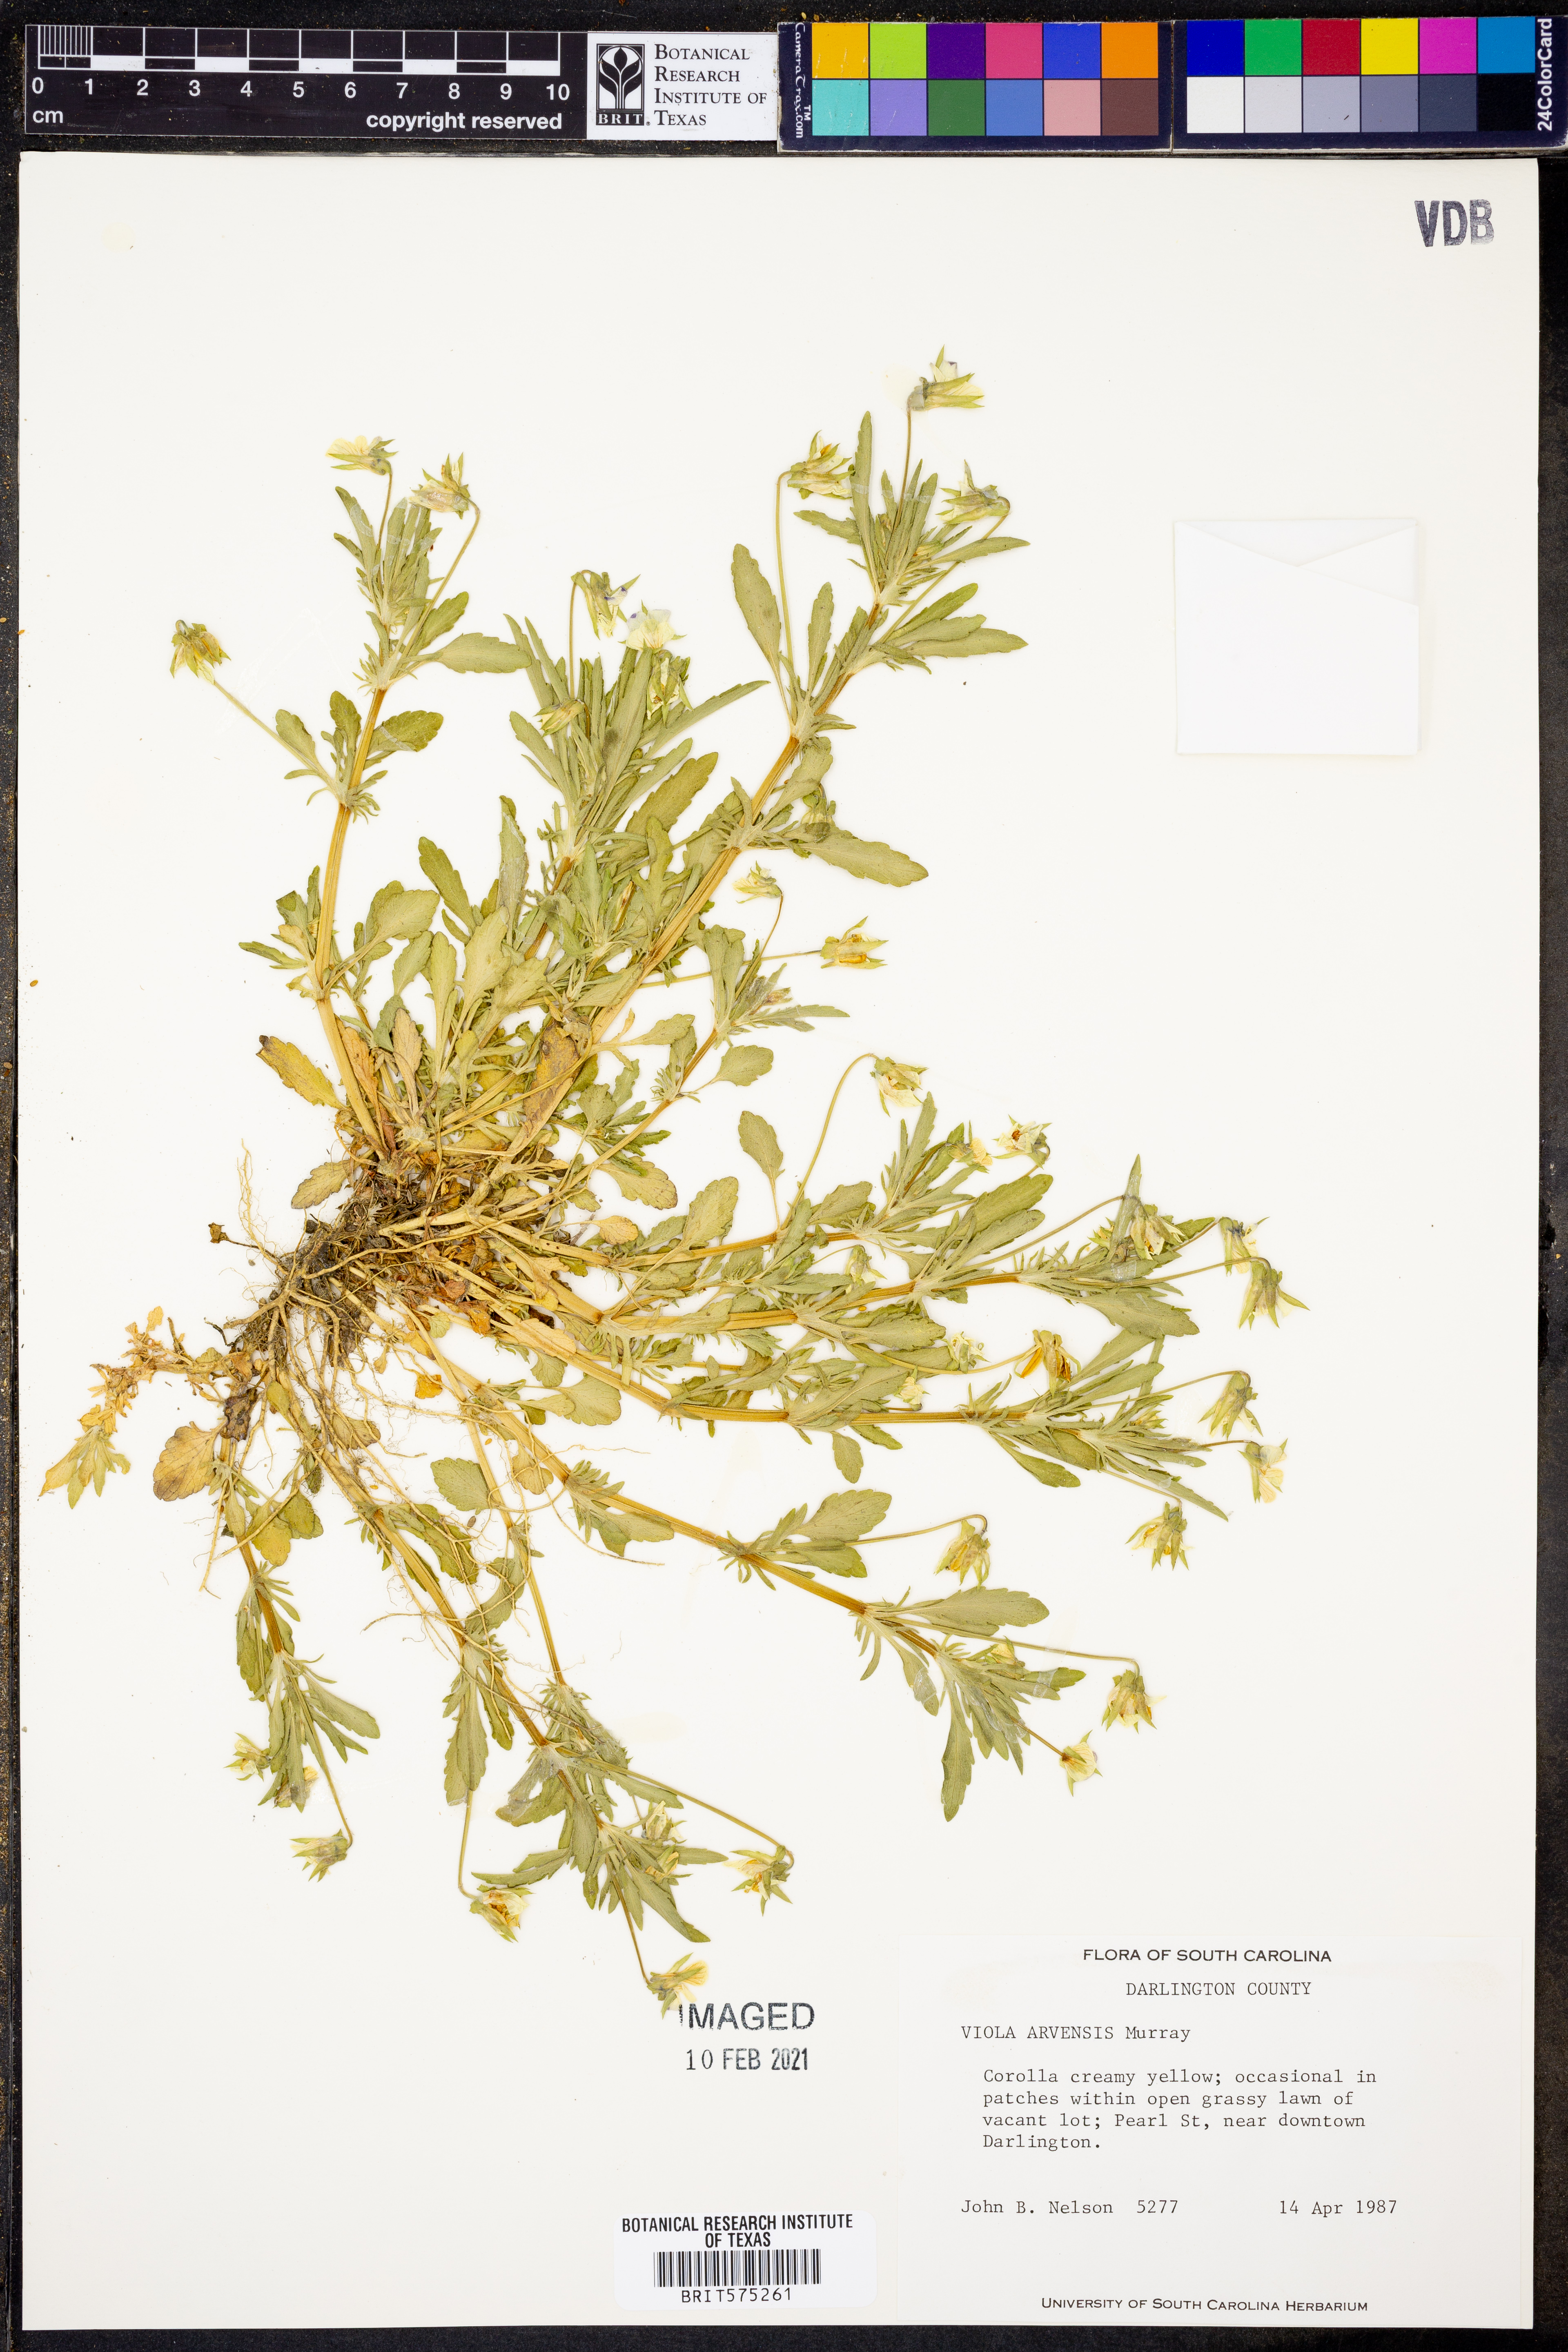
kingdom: Plantae
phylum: Tracheophyta
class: Magnoliopsida
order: Malpighiales
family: Violaceae
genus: Viola
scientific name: Viola arvensis
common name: Field pansy
